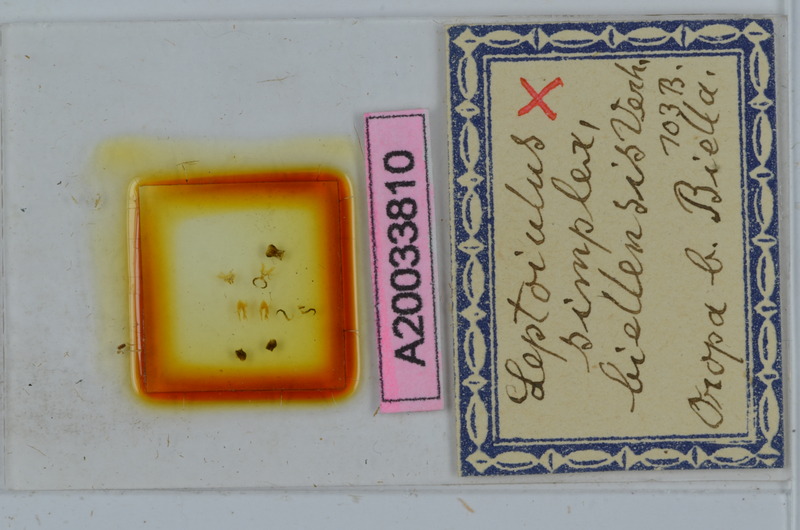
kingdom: Animalia
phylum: Arthropoda
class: Diplopoda
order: Julida
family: Julidae
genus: Leptoiulus
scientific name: Leptoiulus simplex
